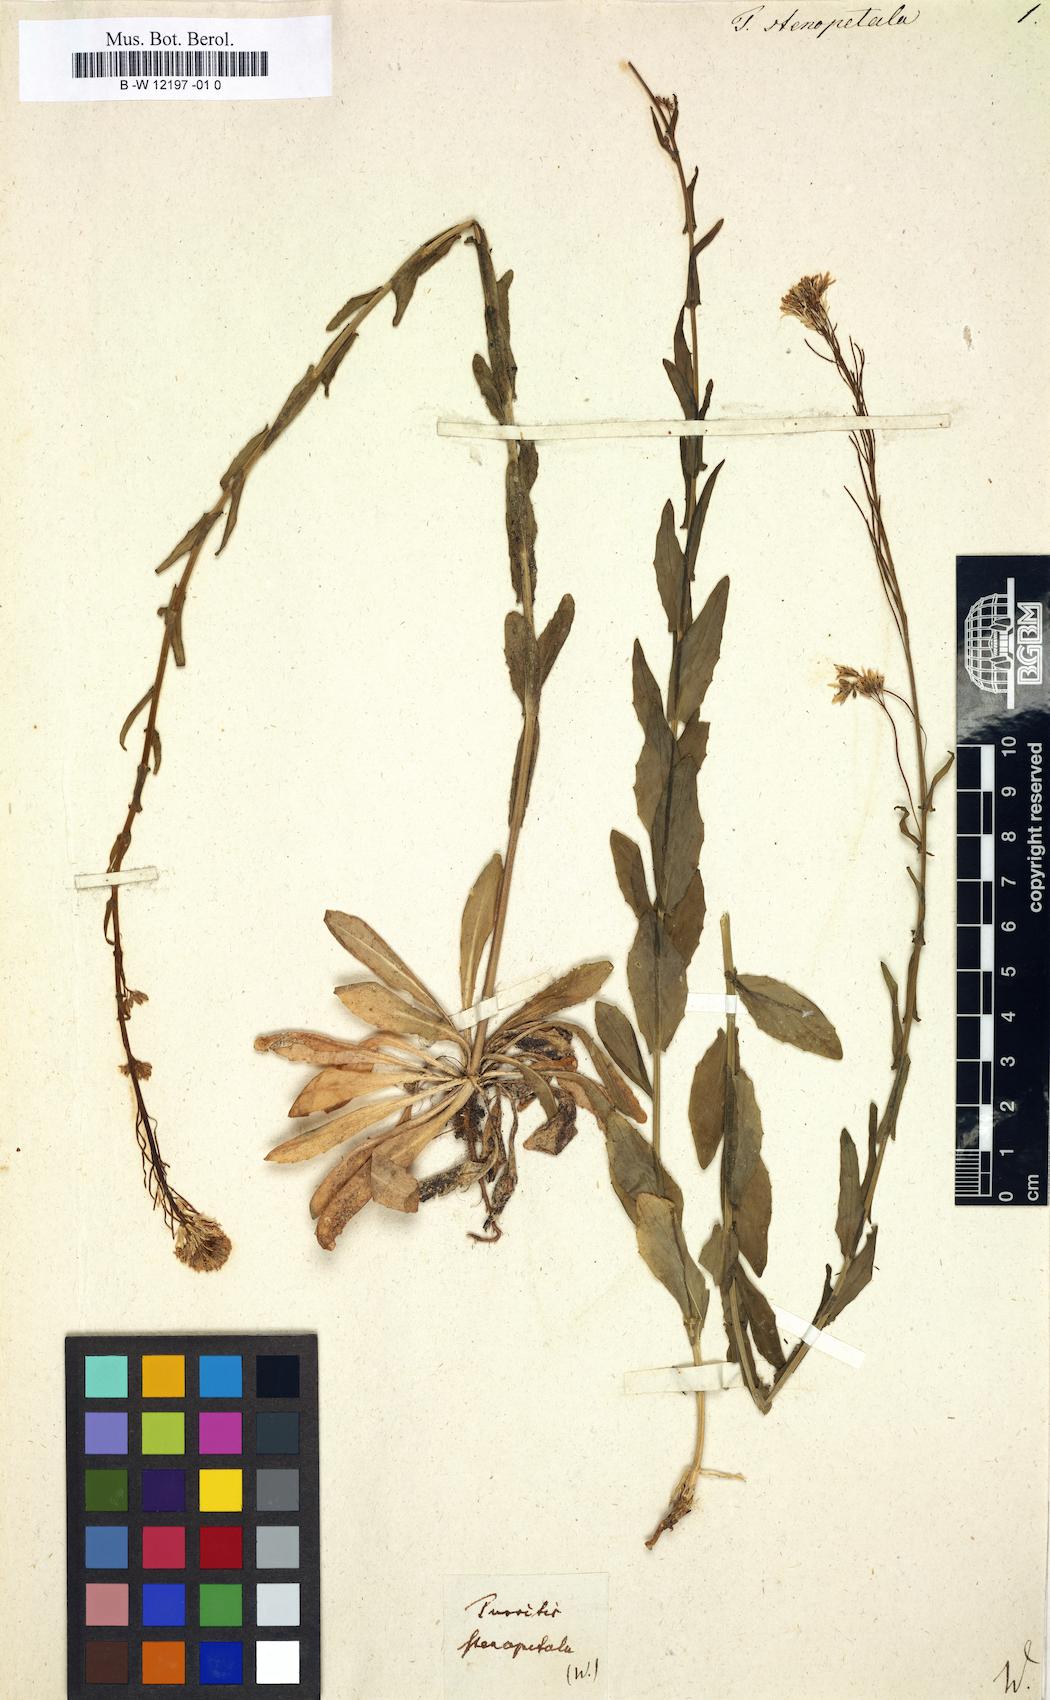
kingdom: Plantae
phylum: Tracheophyta
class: Magnoliopsida
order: Brassicales
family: Brassicaceae
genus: Arabis
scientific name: Arabis hirsuta
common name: Hairy rock-cress
